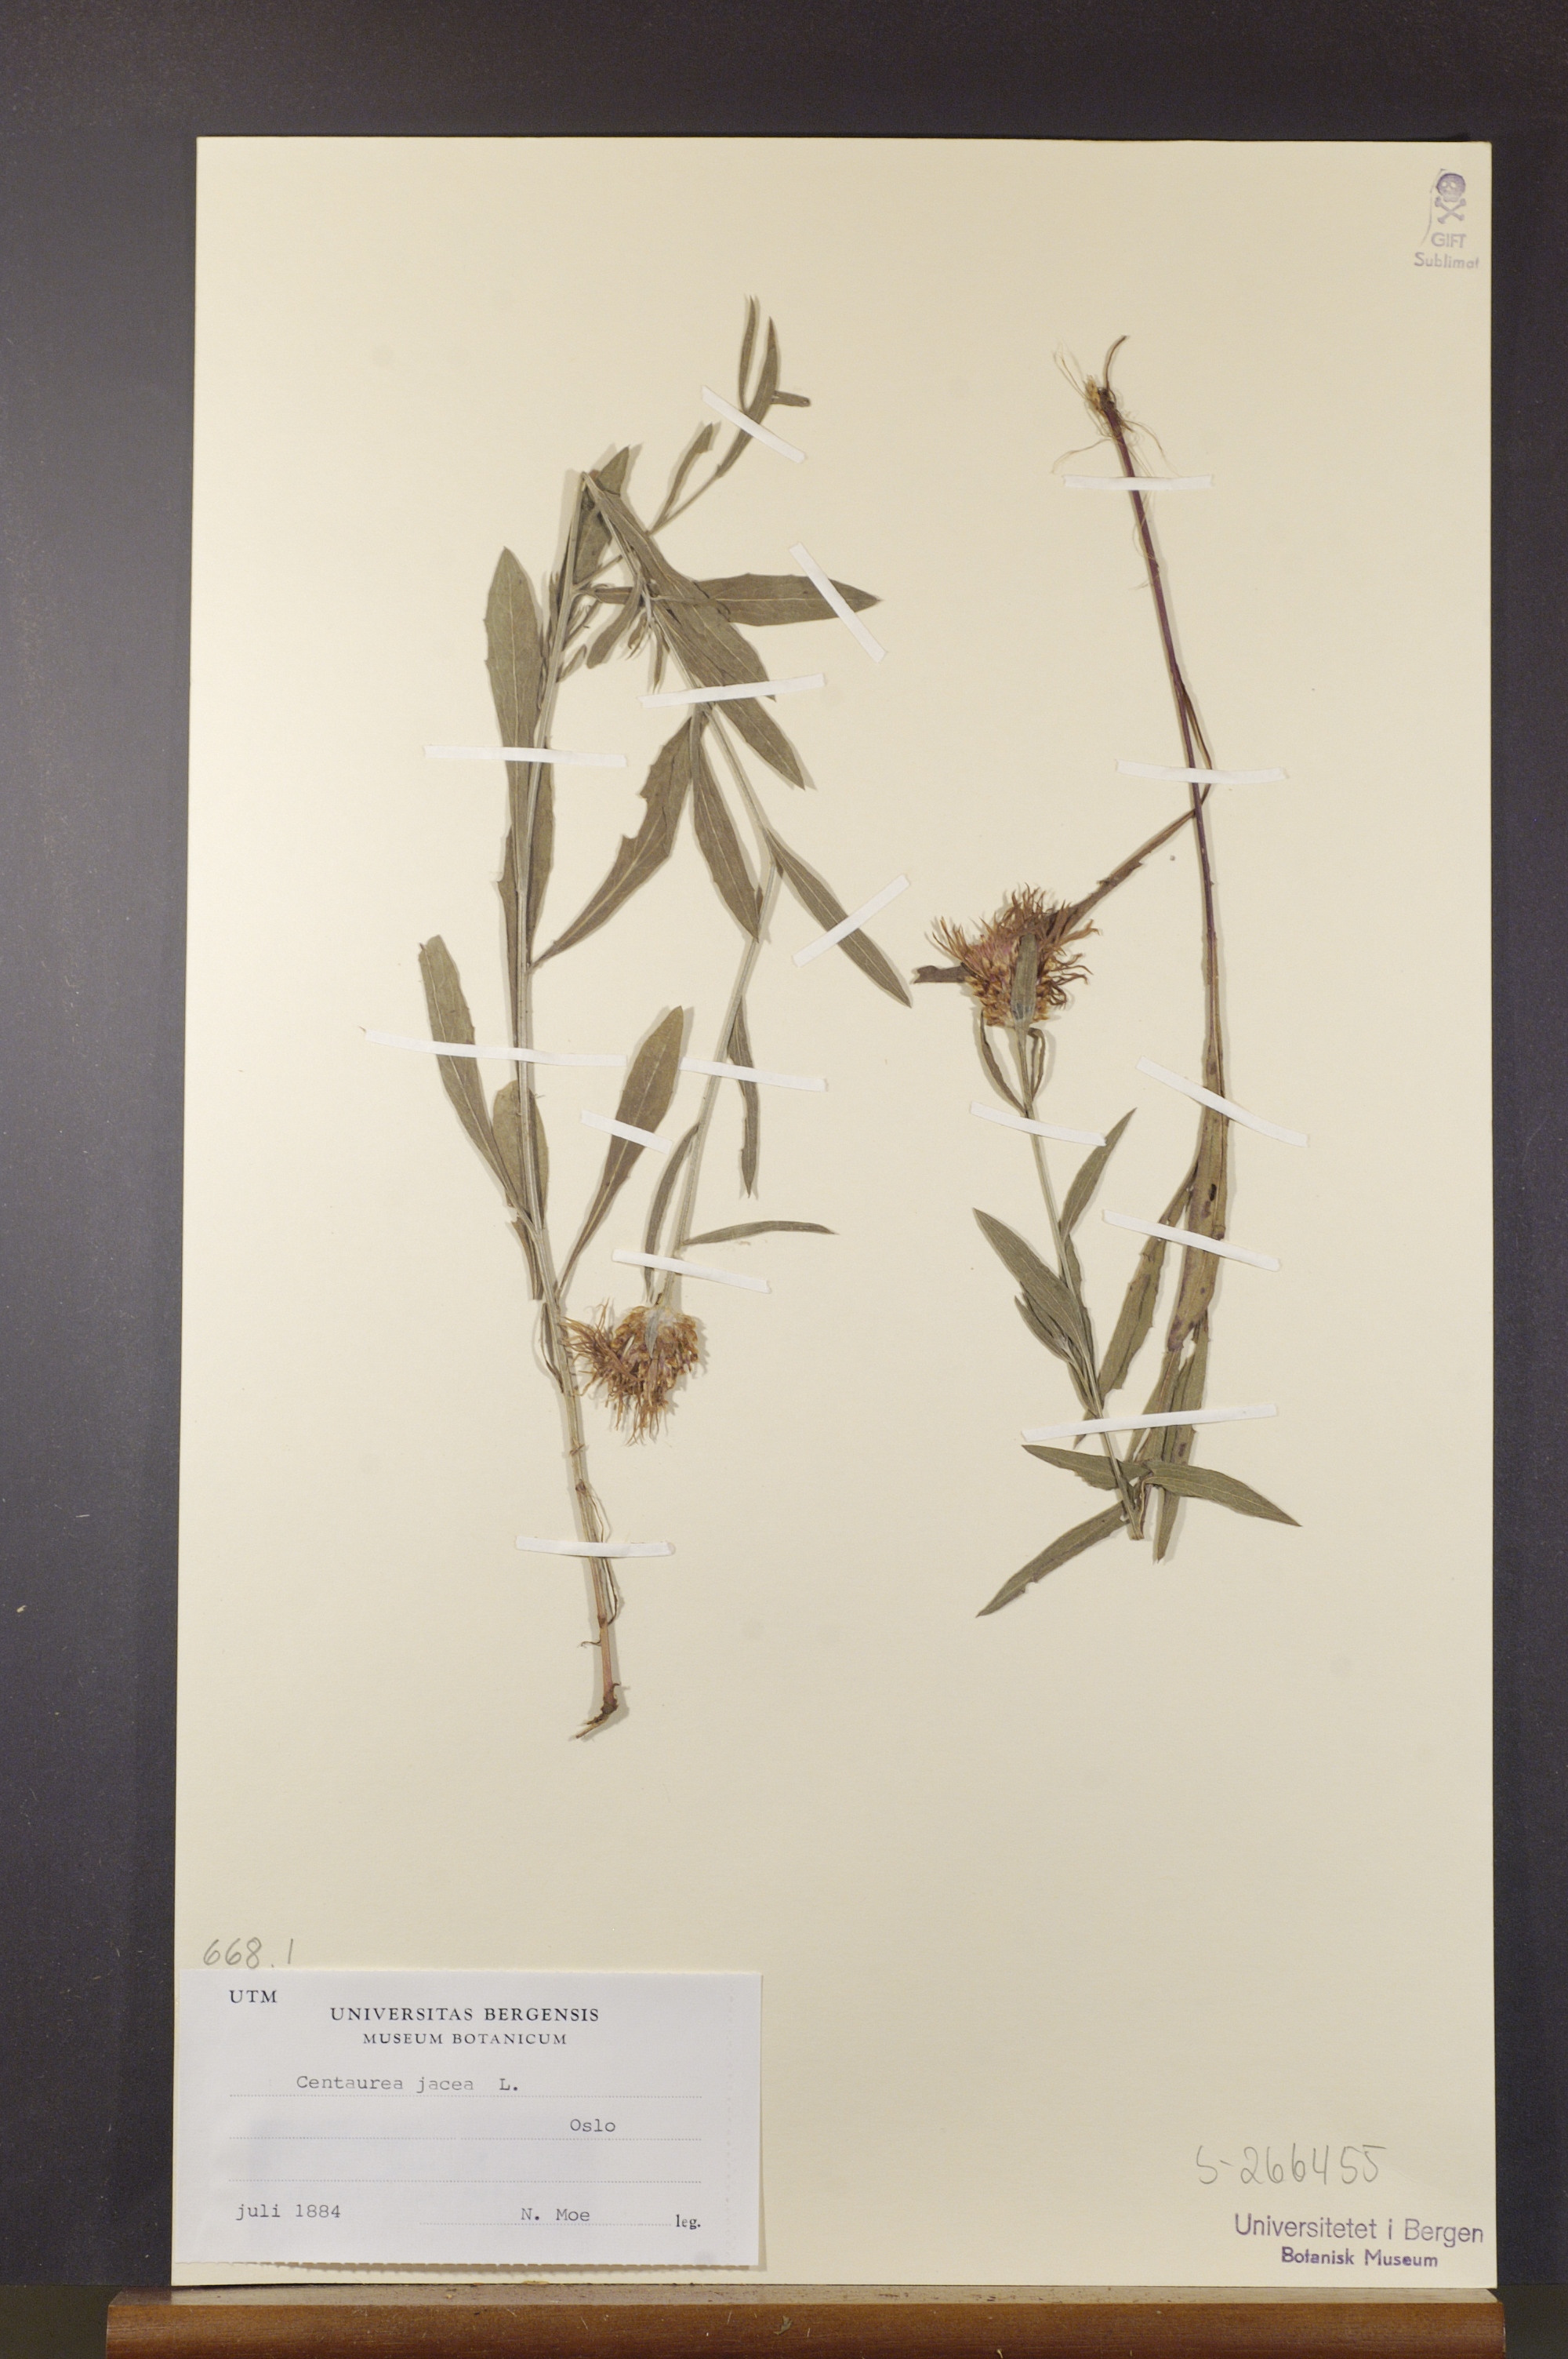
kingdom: Plantae
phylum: Tracheophyta
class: Magnoliopsida
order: Asterales
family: Asteraceae
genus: Centaurea
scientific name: Centaurea jacea
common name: Brown knapweed
